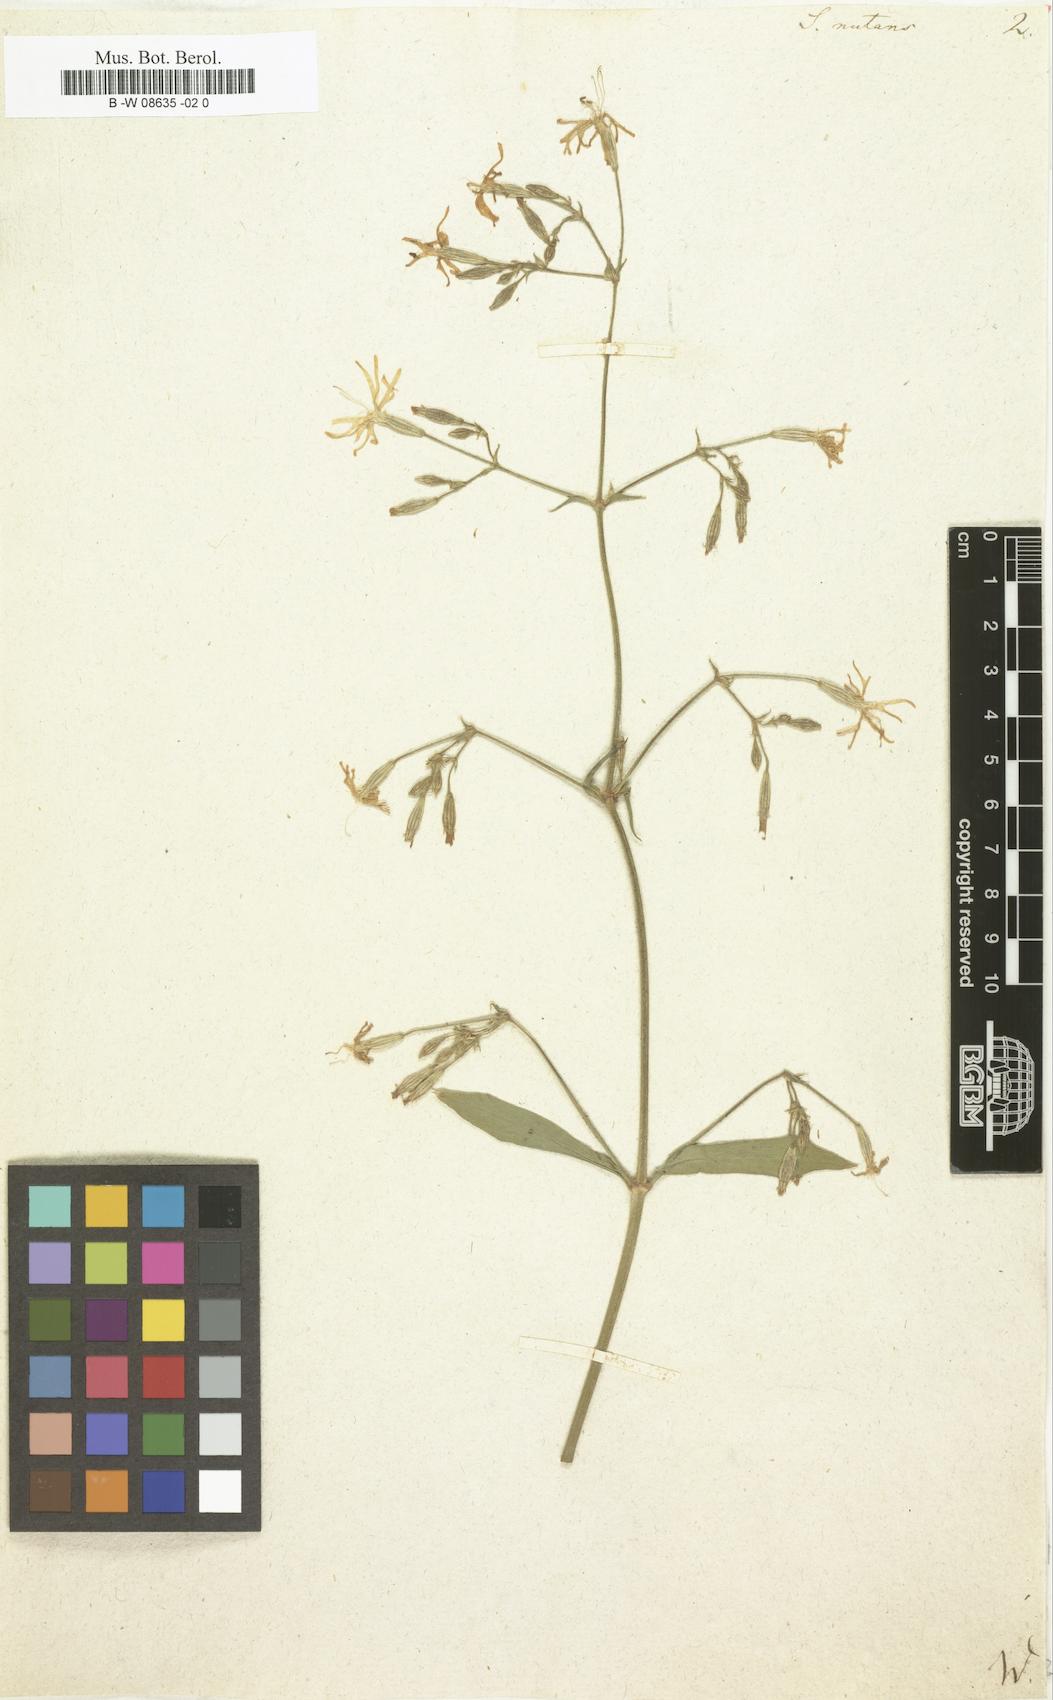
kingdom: Plantae
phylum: Tracheophyta
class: Magnoliopsida
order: Caryophyllales
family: Caryophyllaceae
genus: Silene
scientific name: Silene nutans
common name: Nottingham catchfly
